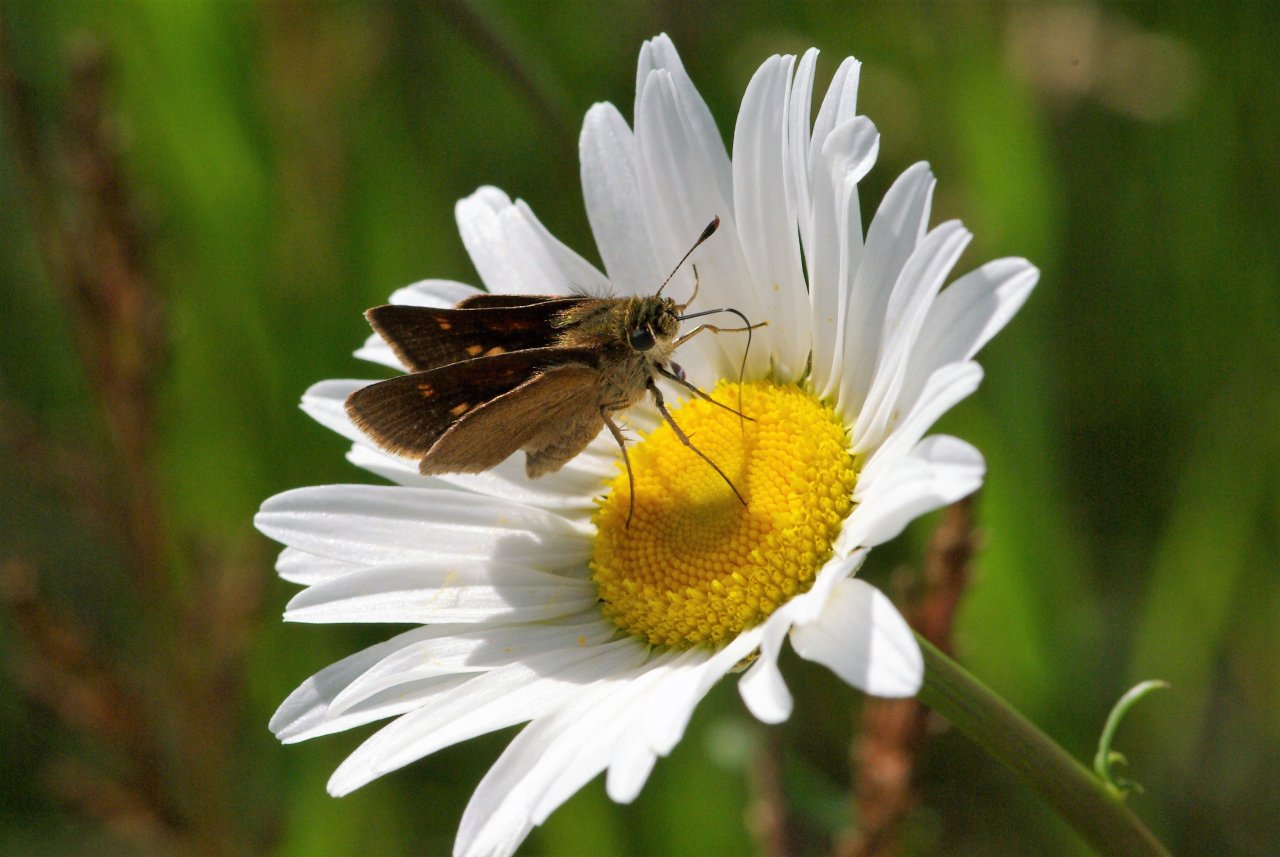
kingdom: Animalia
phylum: Arthropoda
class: Insecta
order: Lepidoptera
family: Hesperiidae
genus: Euphyes
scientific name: Euphyes vestris
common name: Dun Skipper
